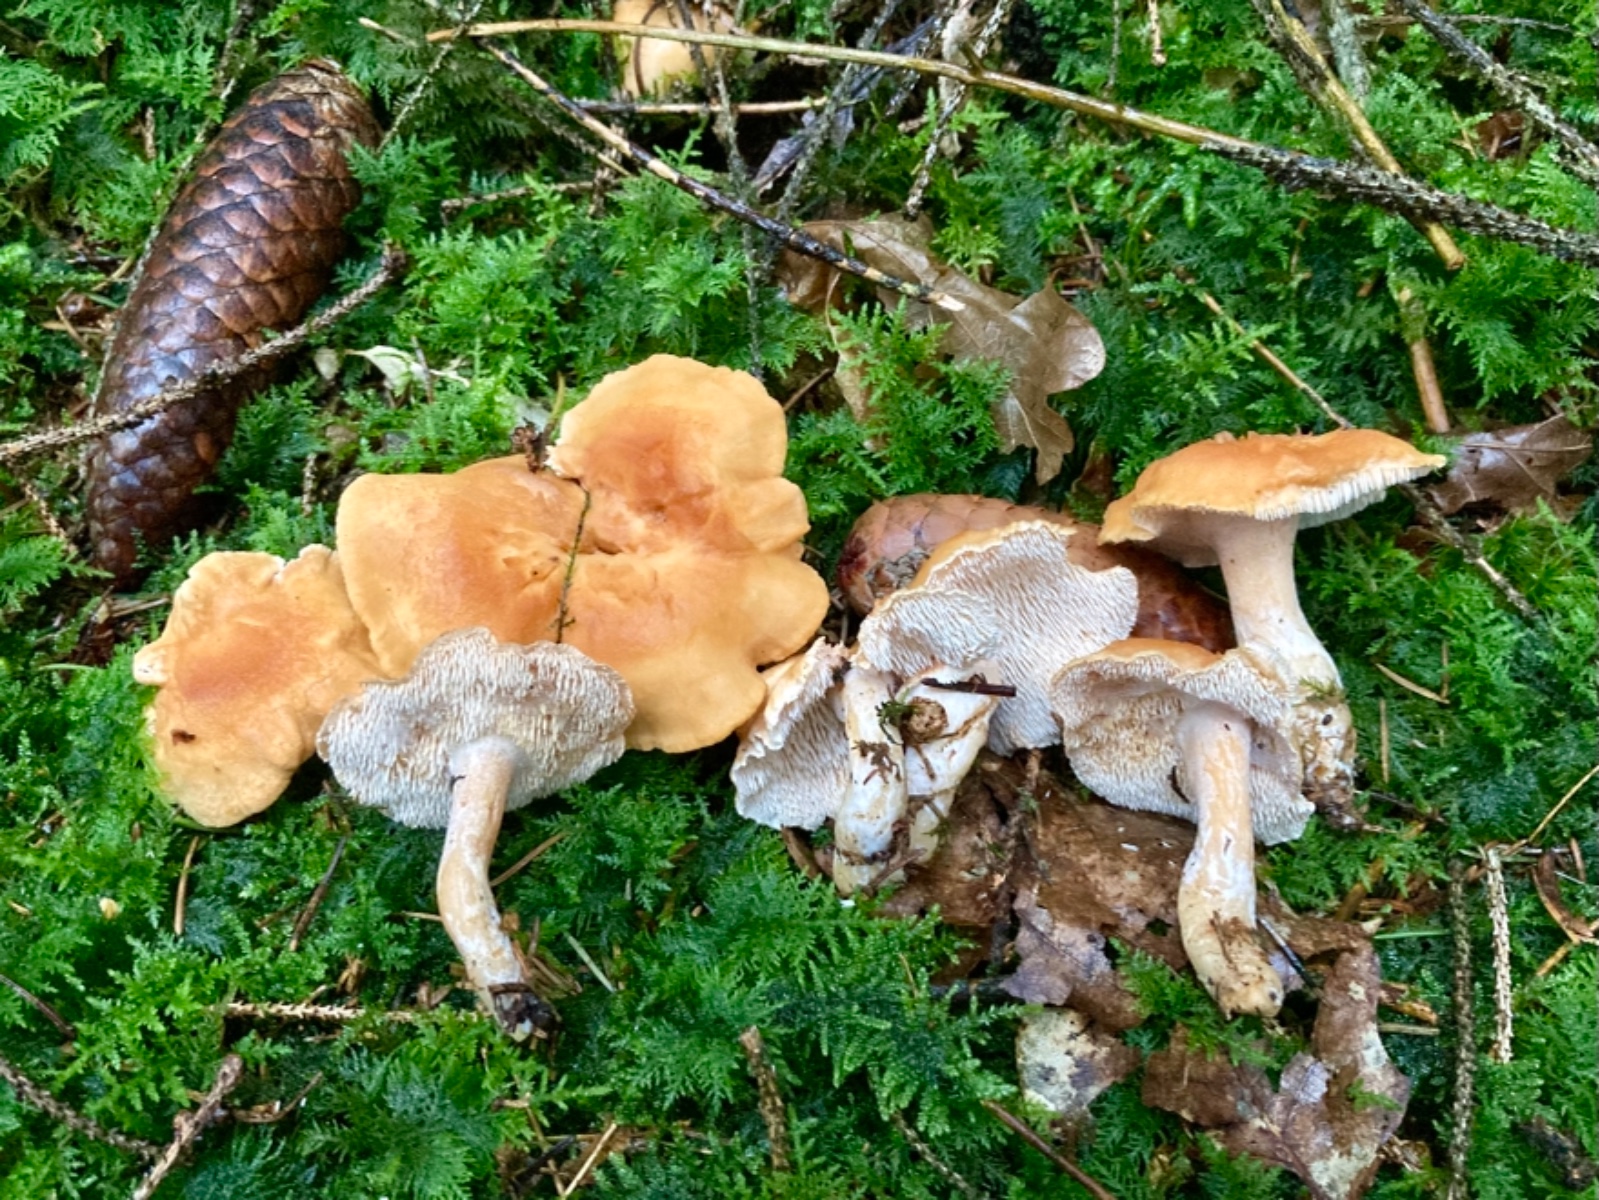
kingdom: Fungi
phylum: Basidiomycota
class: Agaricomycetes
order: Cantharellales
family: Hydnaceae
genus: Hydnum
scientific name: Hydnum mulsicolor
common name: mjødfarvet pigsvamp
